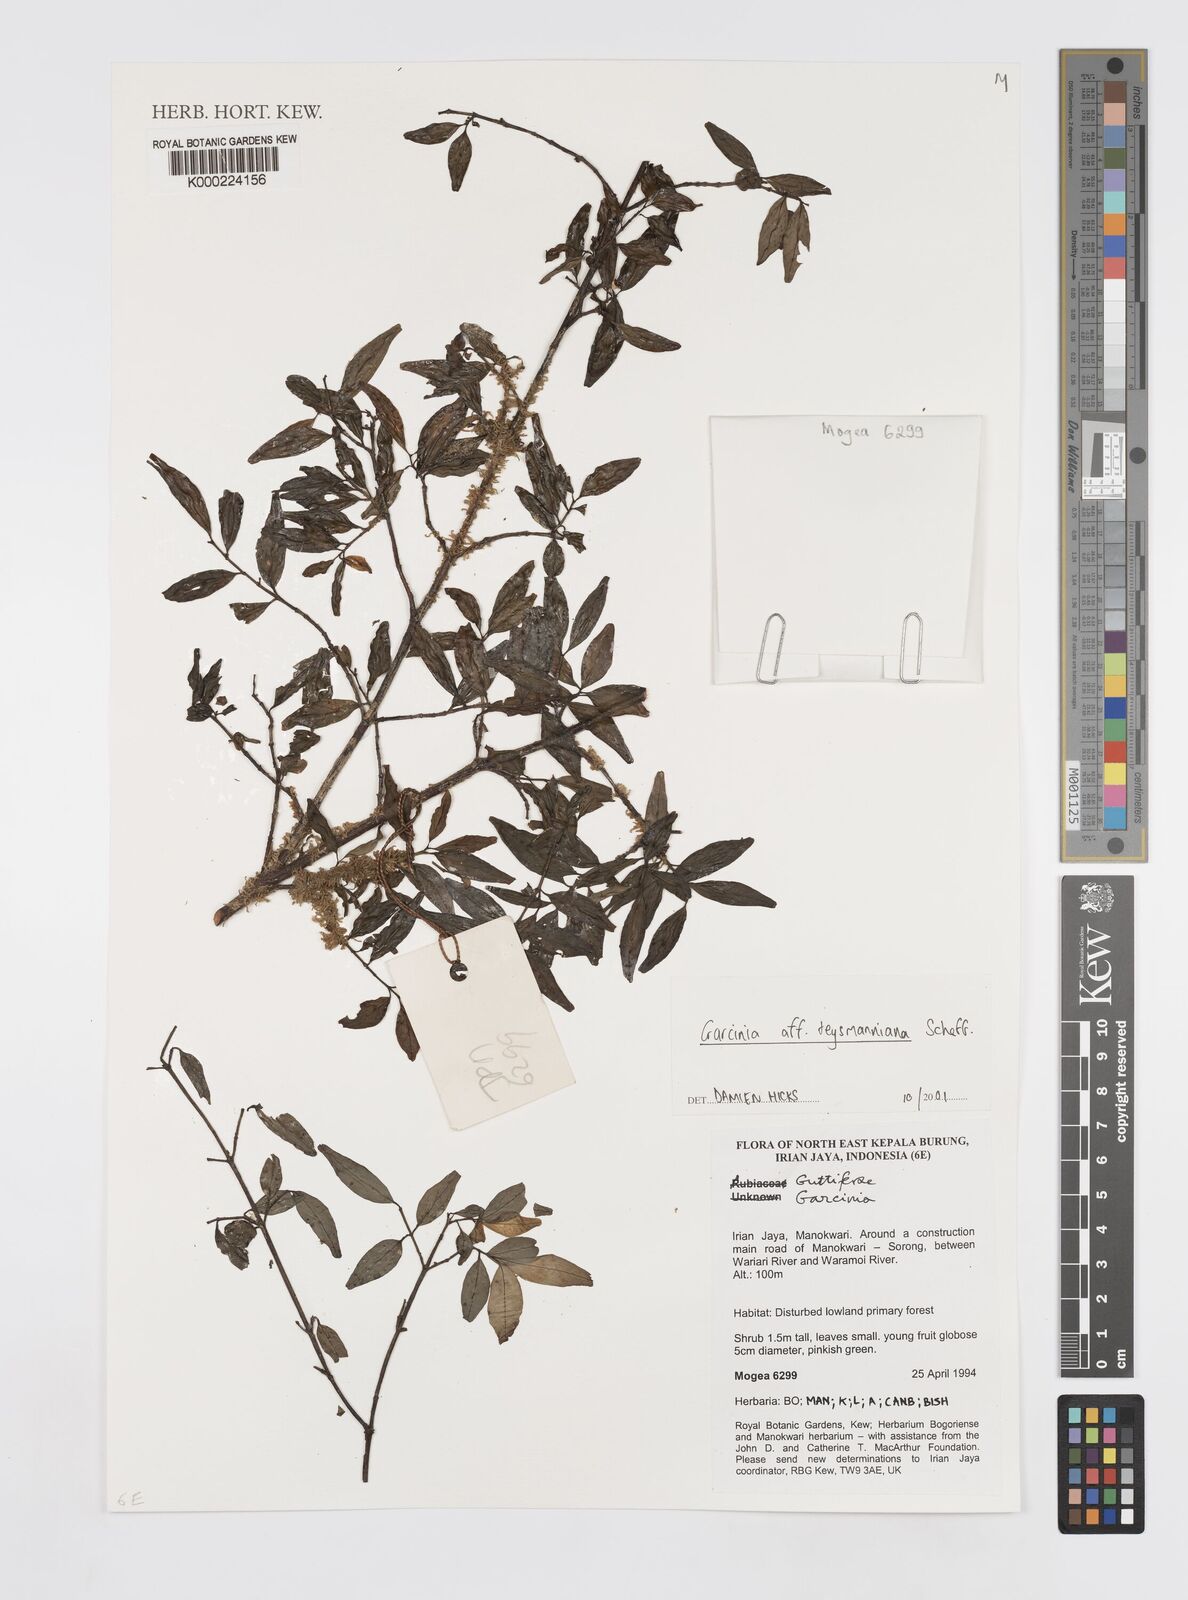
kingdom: Plantae
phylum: Tracheophyta
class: Magnoliopsida
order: Malpighiales
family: Clusiaceae
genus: Garcinia
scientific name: Garcinia teysmanniana
